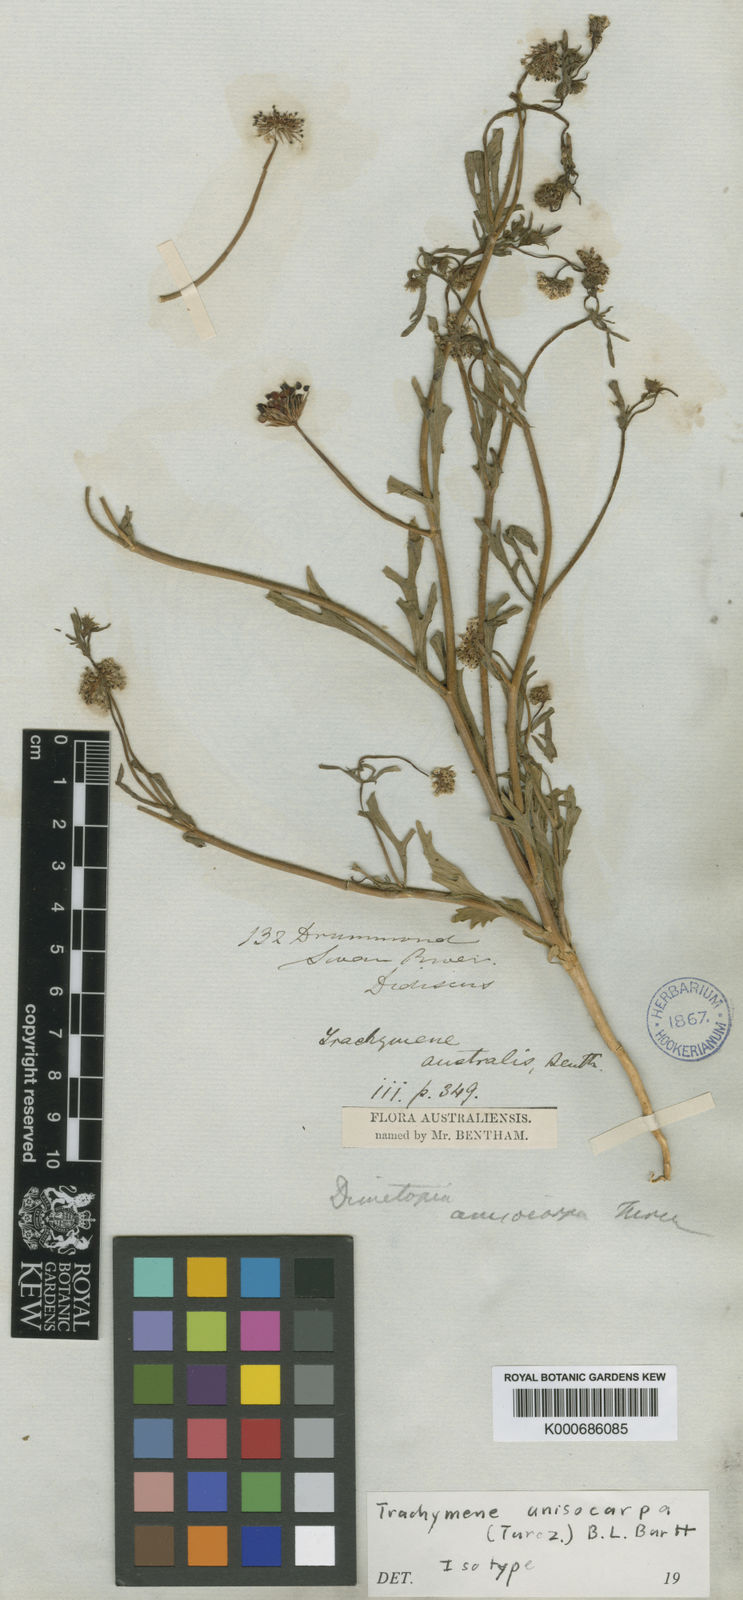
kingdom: Plantae
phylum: Tracheophyta
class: Magnoliopsida
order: Apiales
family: Araliaceae
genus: Trachymene
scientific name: Trachymene anisocarpa
